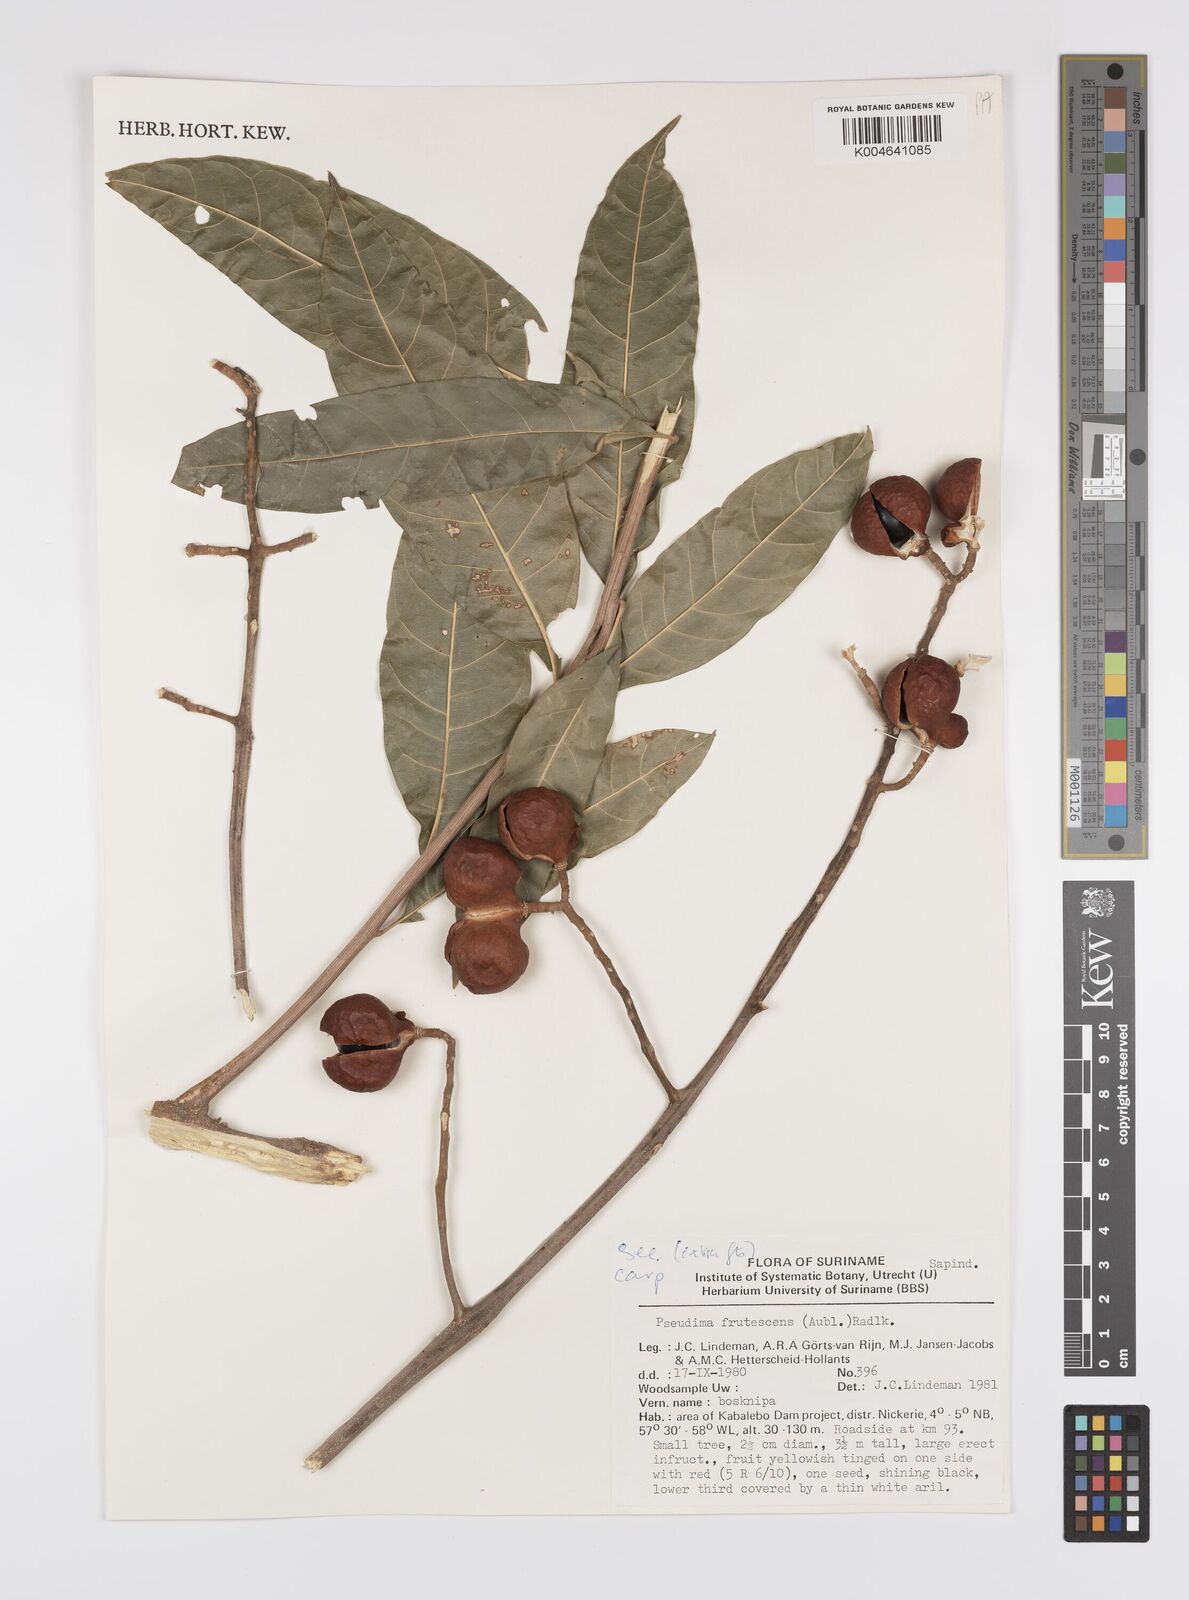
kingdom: Plantae
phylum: Tracheophyta
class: Magnoliopsida
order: Sapindales
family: Sapindaceae
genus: Pseudima
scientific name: Pseudima frutescens
